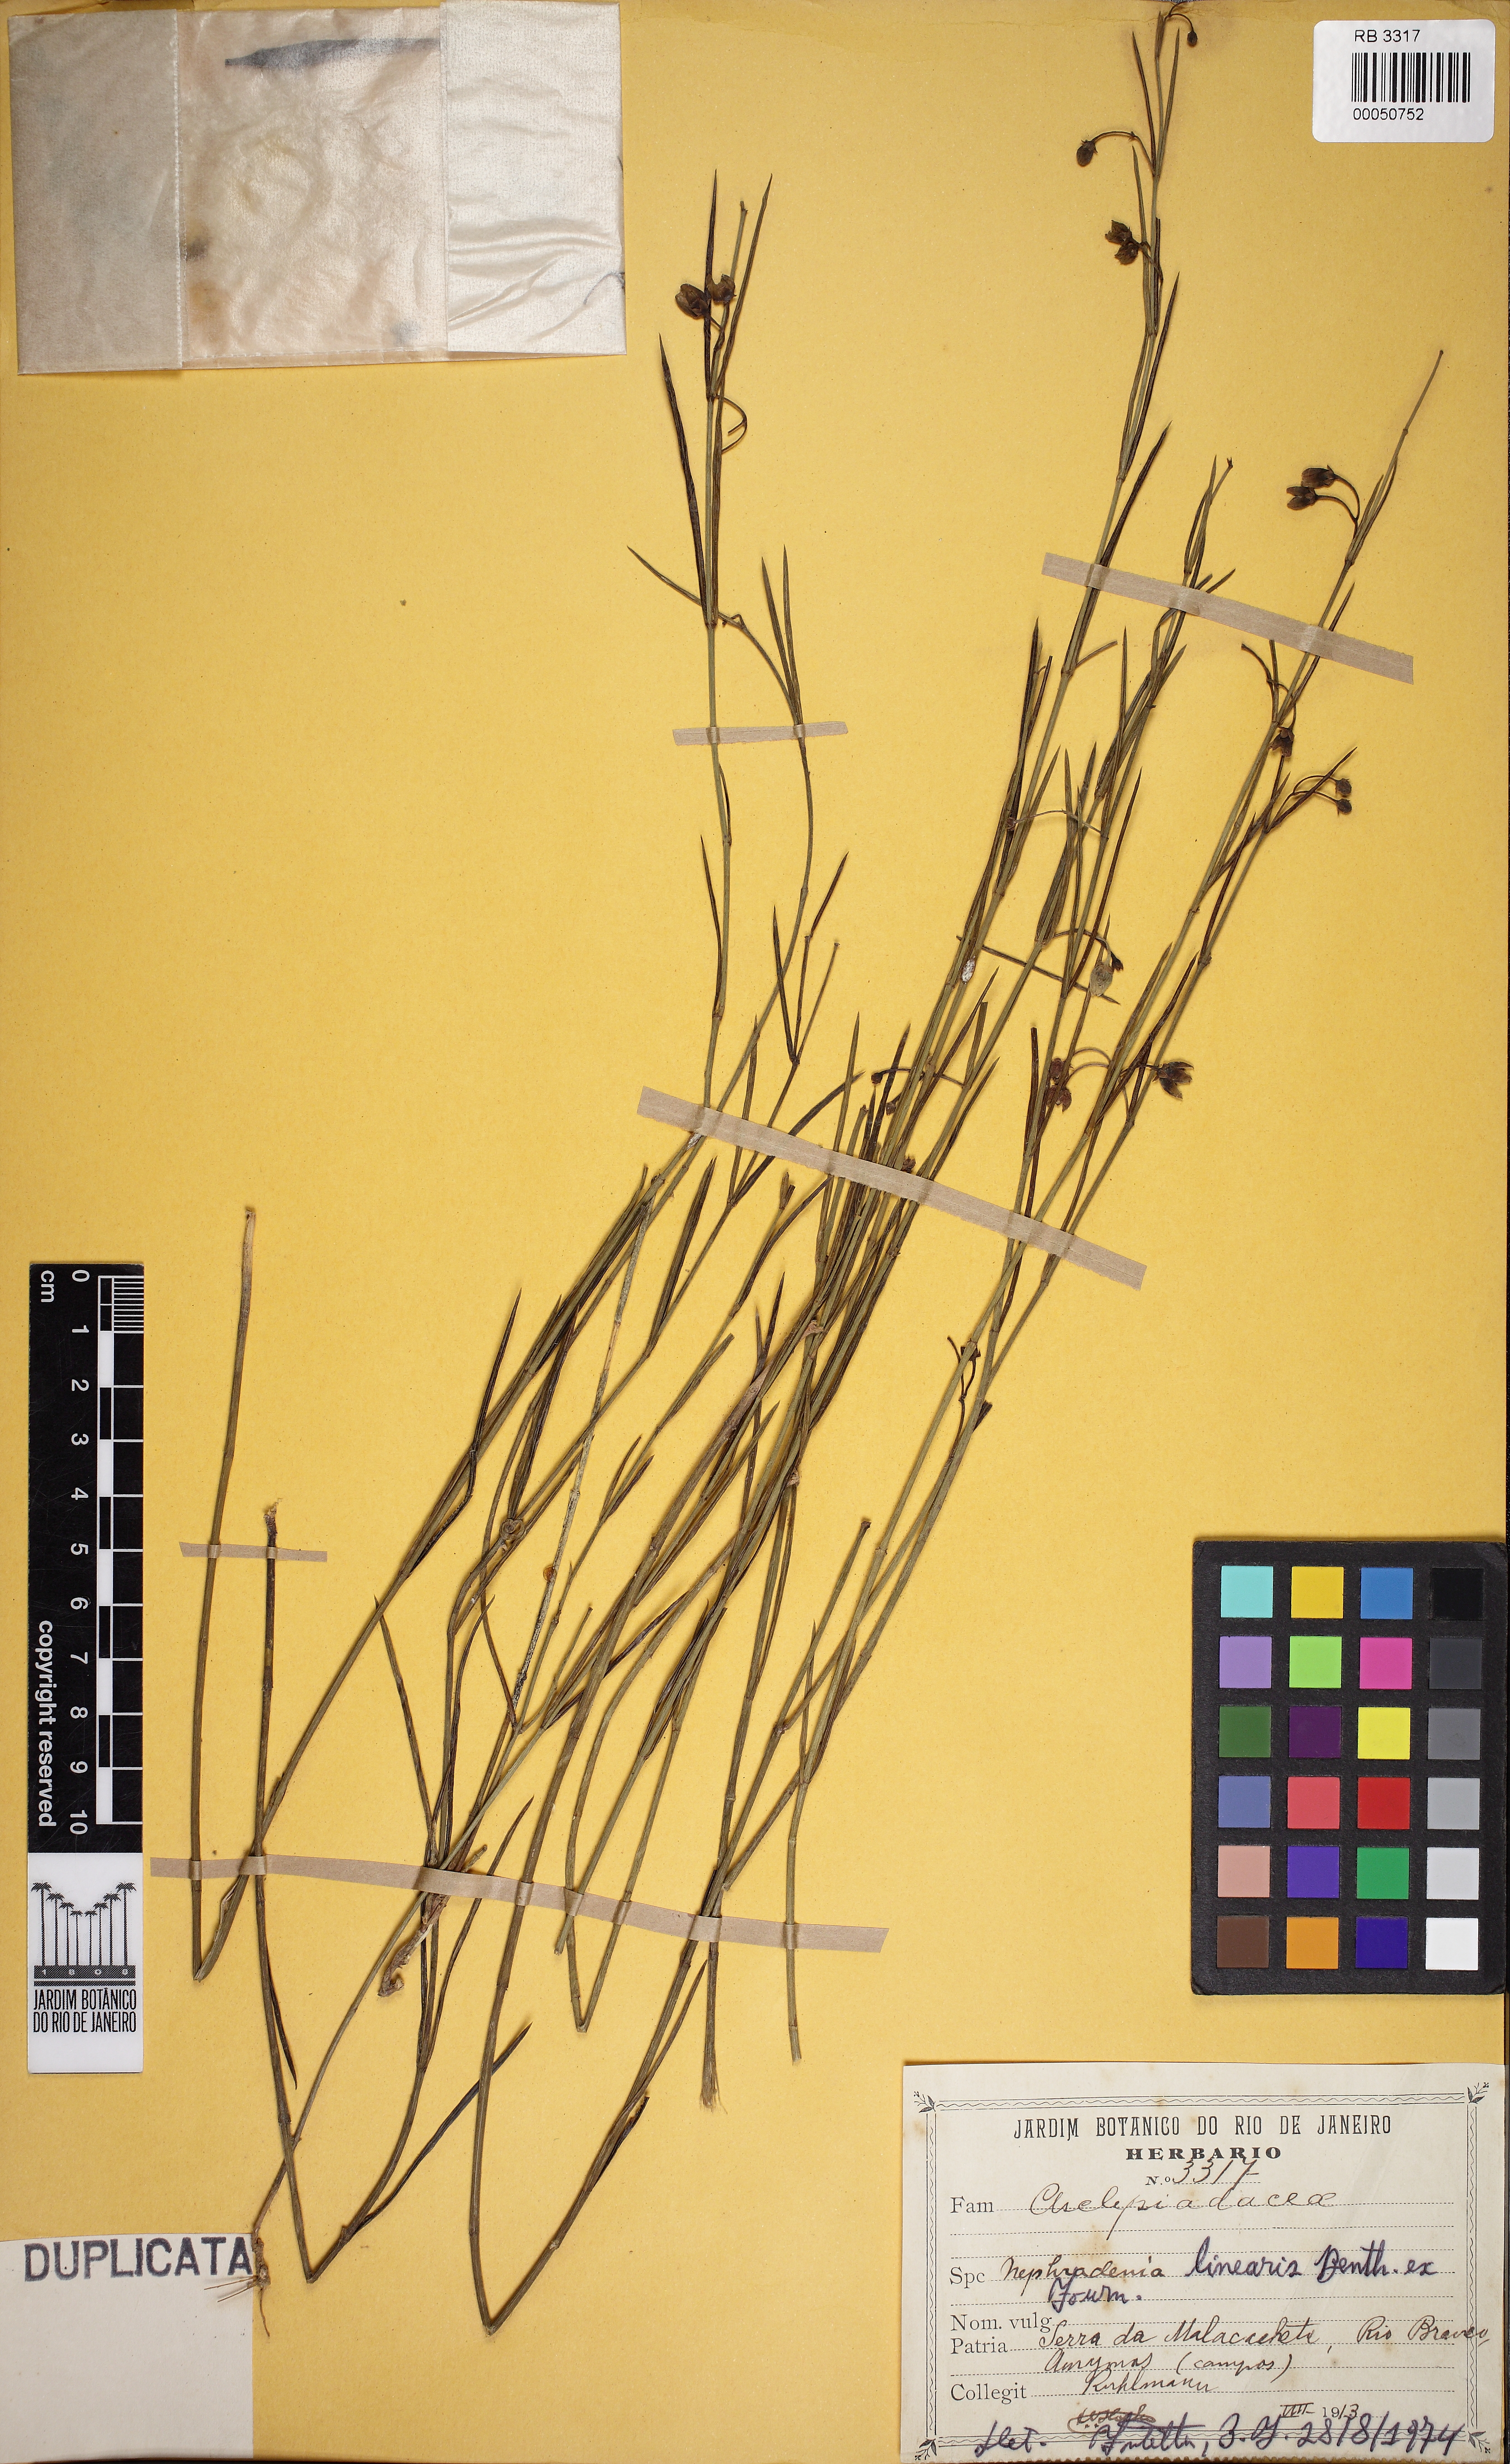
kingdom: Plantae
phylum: Tracheophyta
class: Magnoliopsida
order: Gentianales
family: Apocynaceae
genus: Blepharodon
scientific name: Blepharodon lineare
